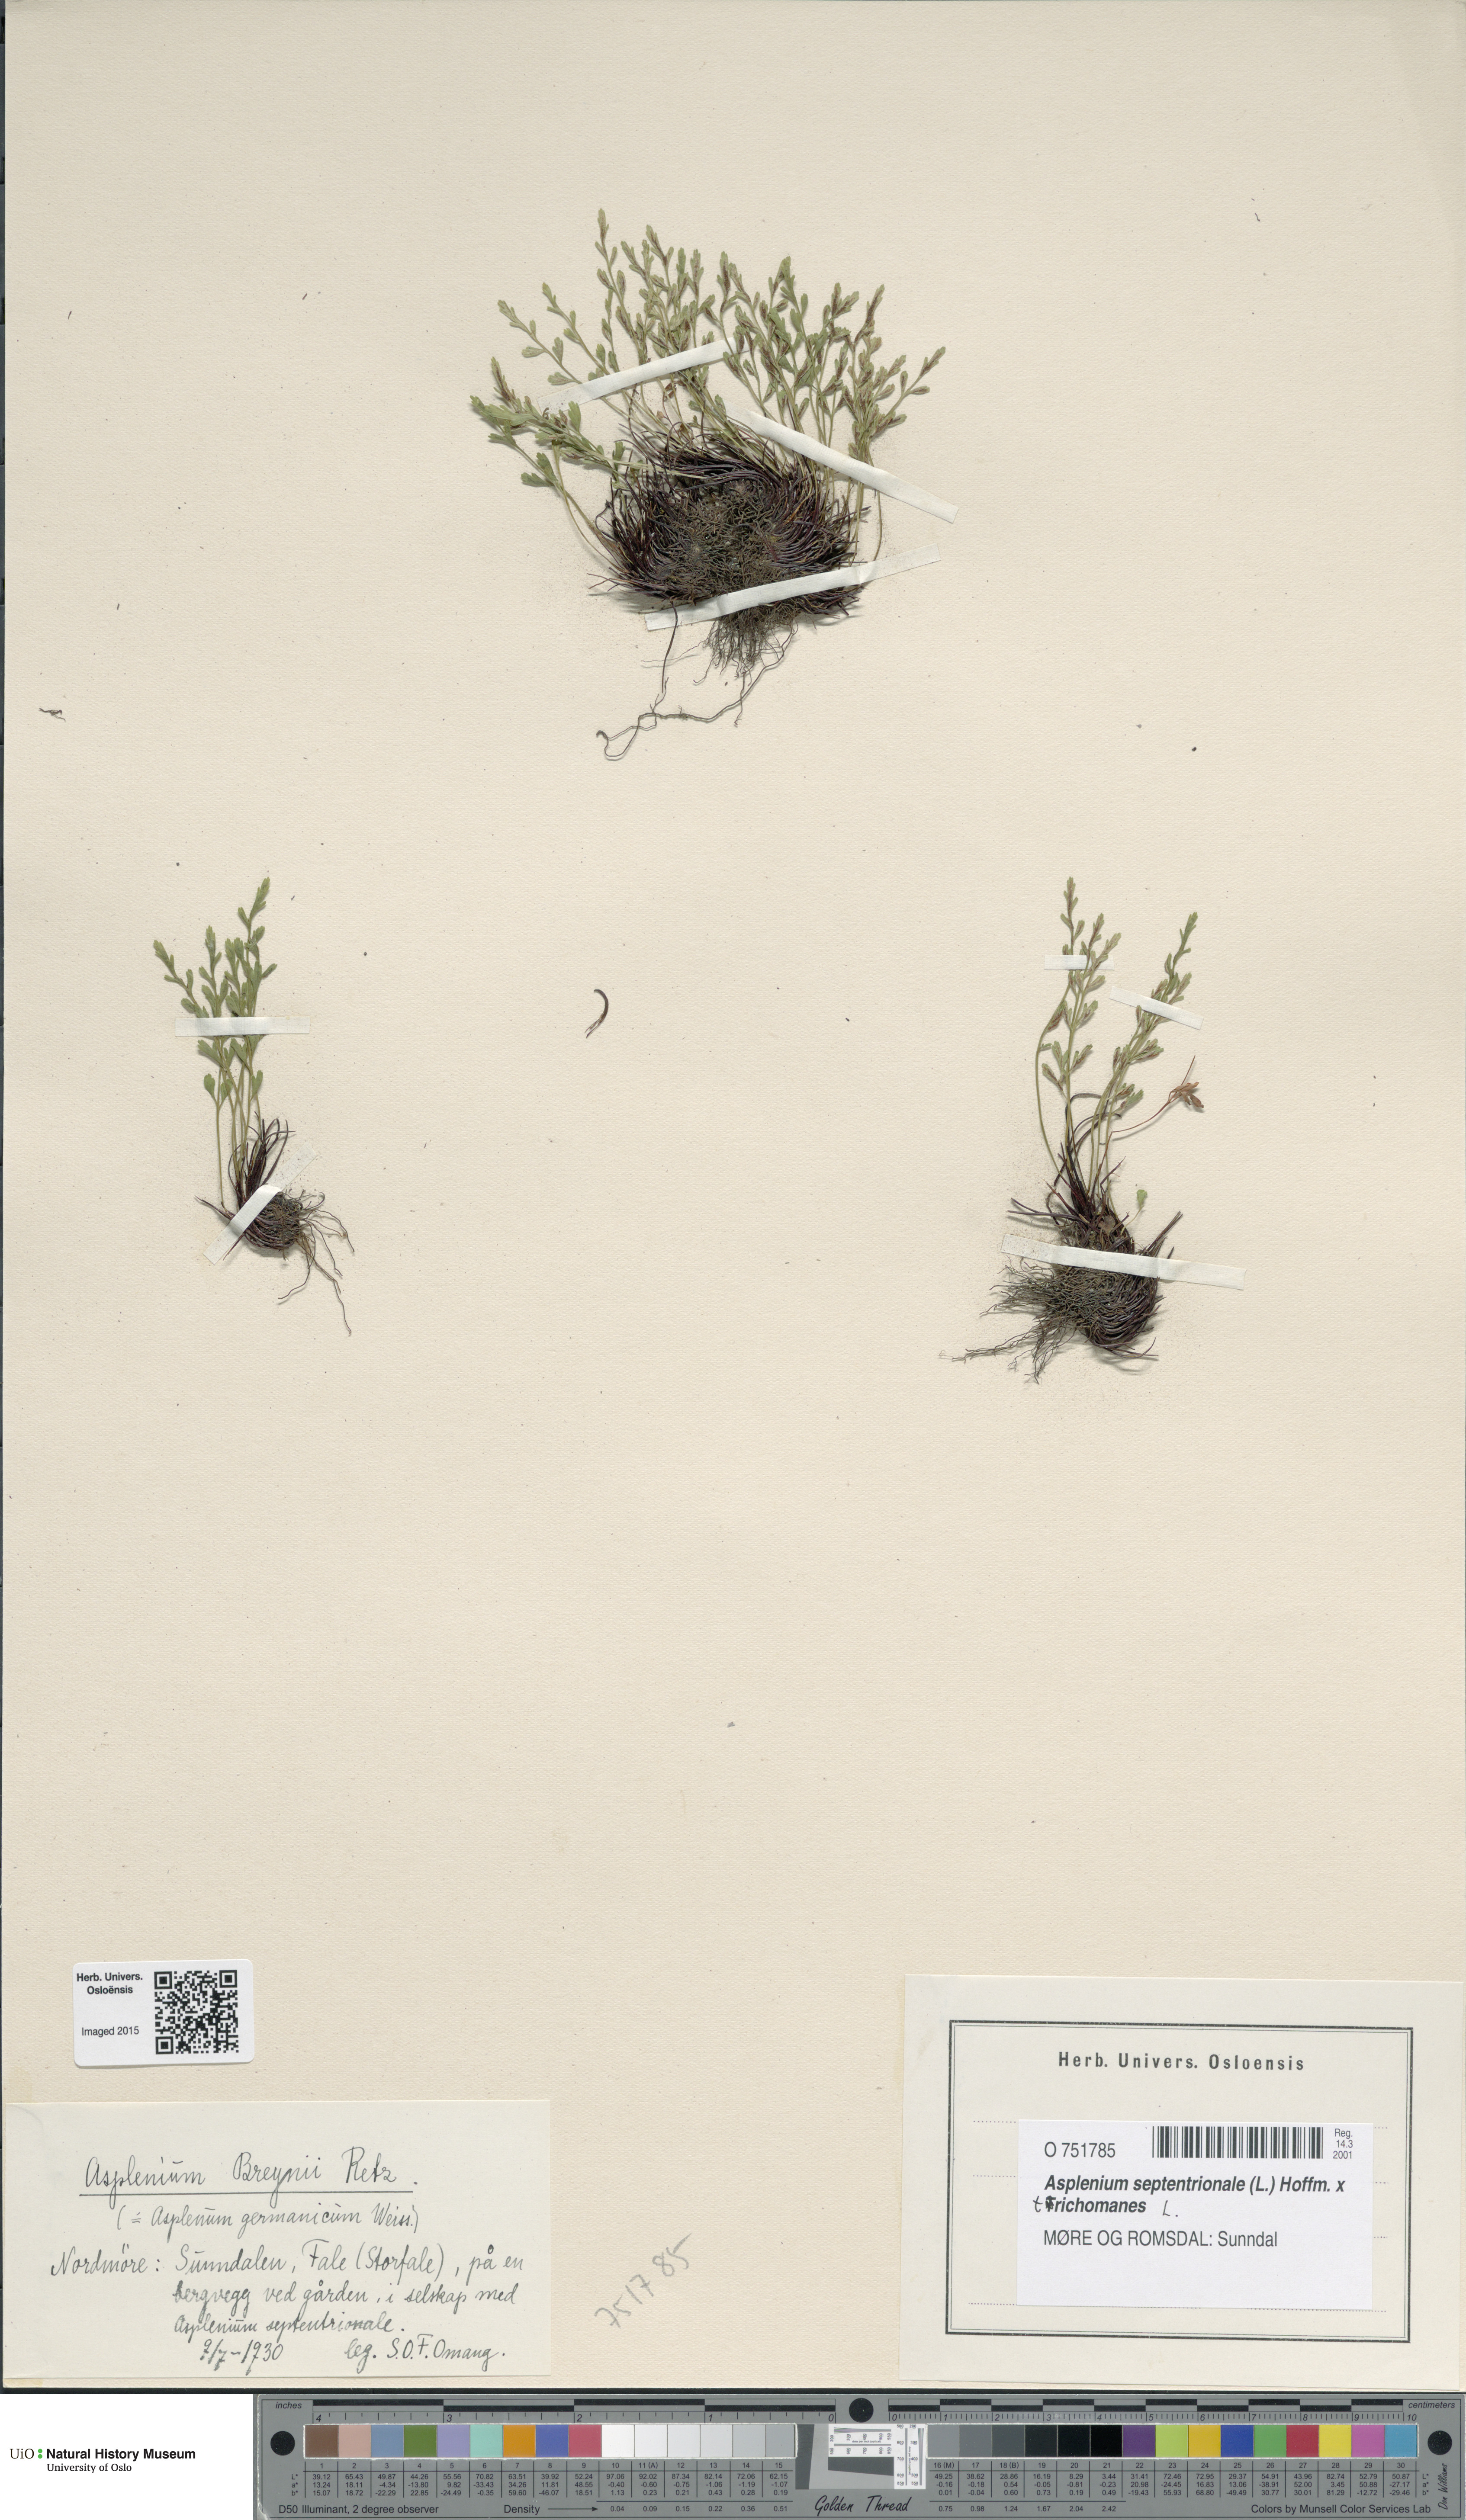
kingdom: Plantae
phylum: Tracheophyta
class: Polypodiopsida
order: Polypodiales
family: Aspleniaceae
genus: Asplenium
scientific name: Asplenium
